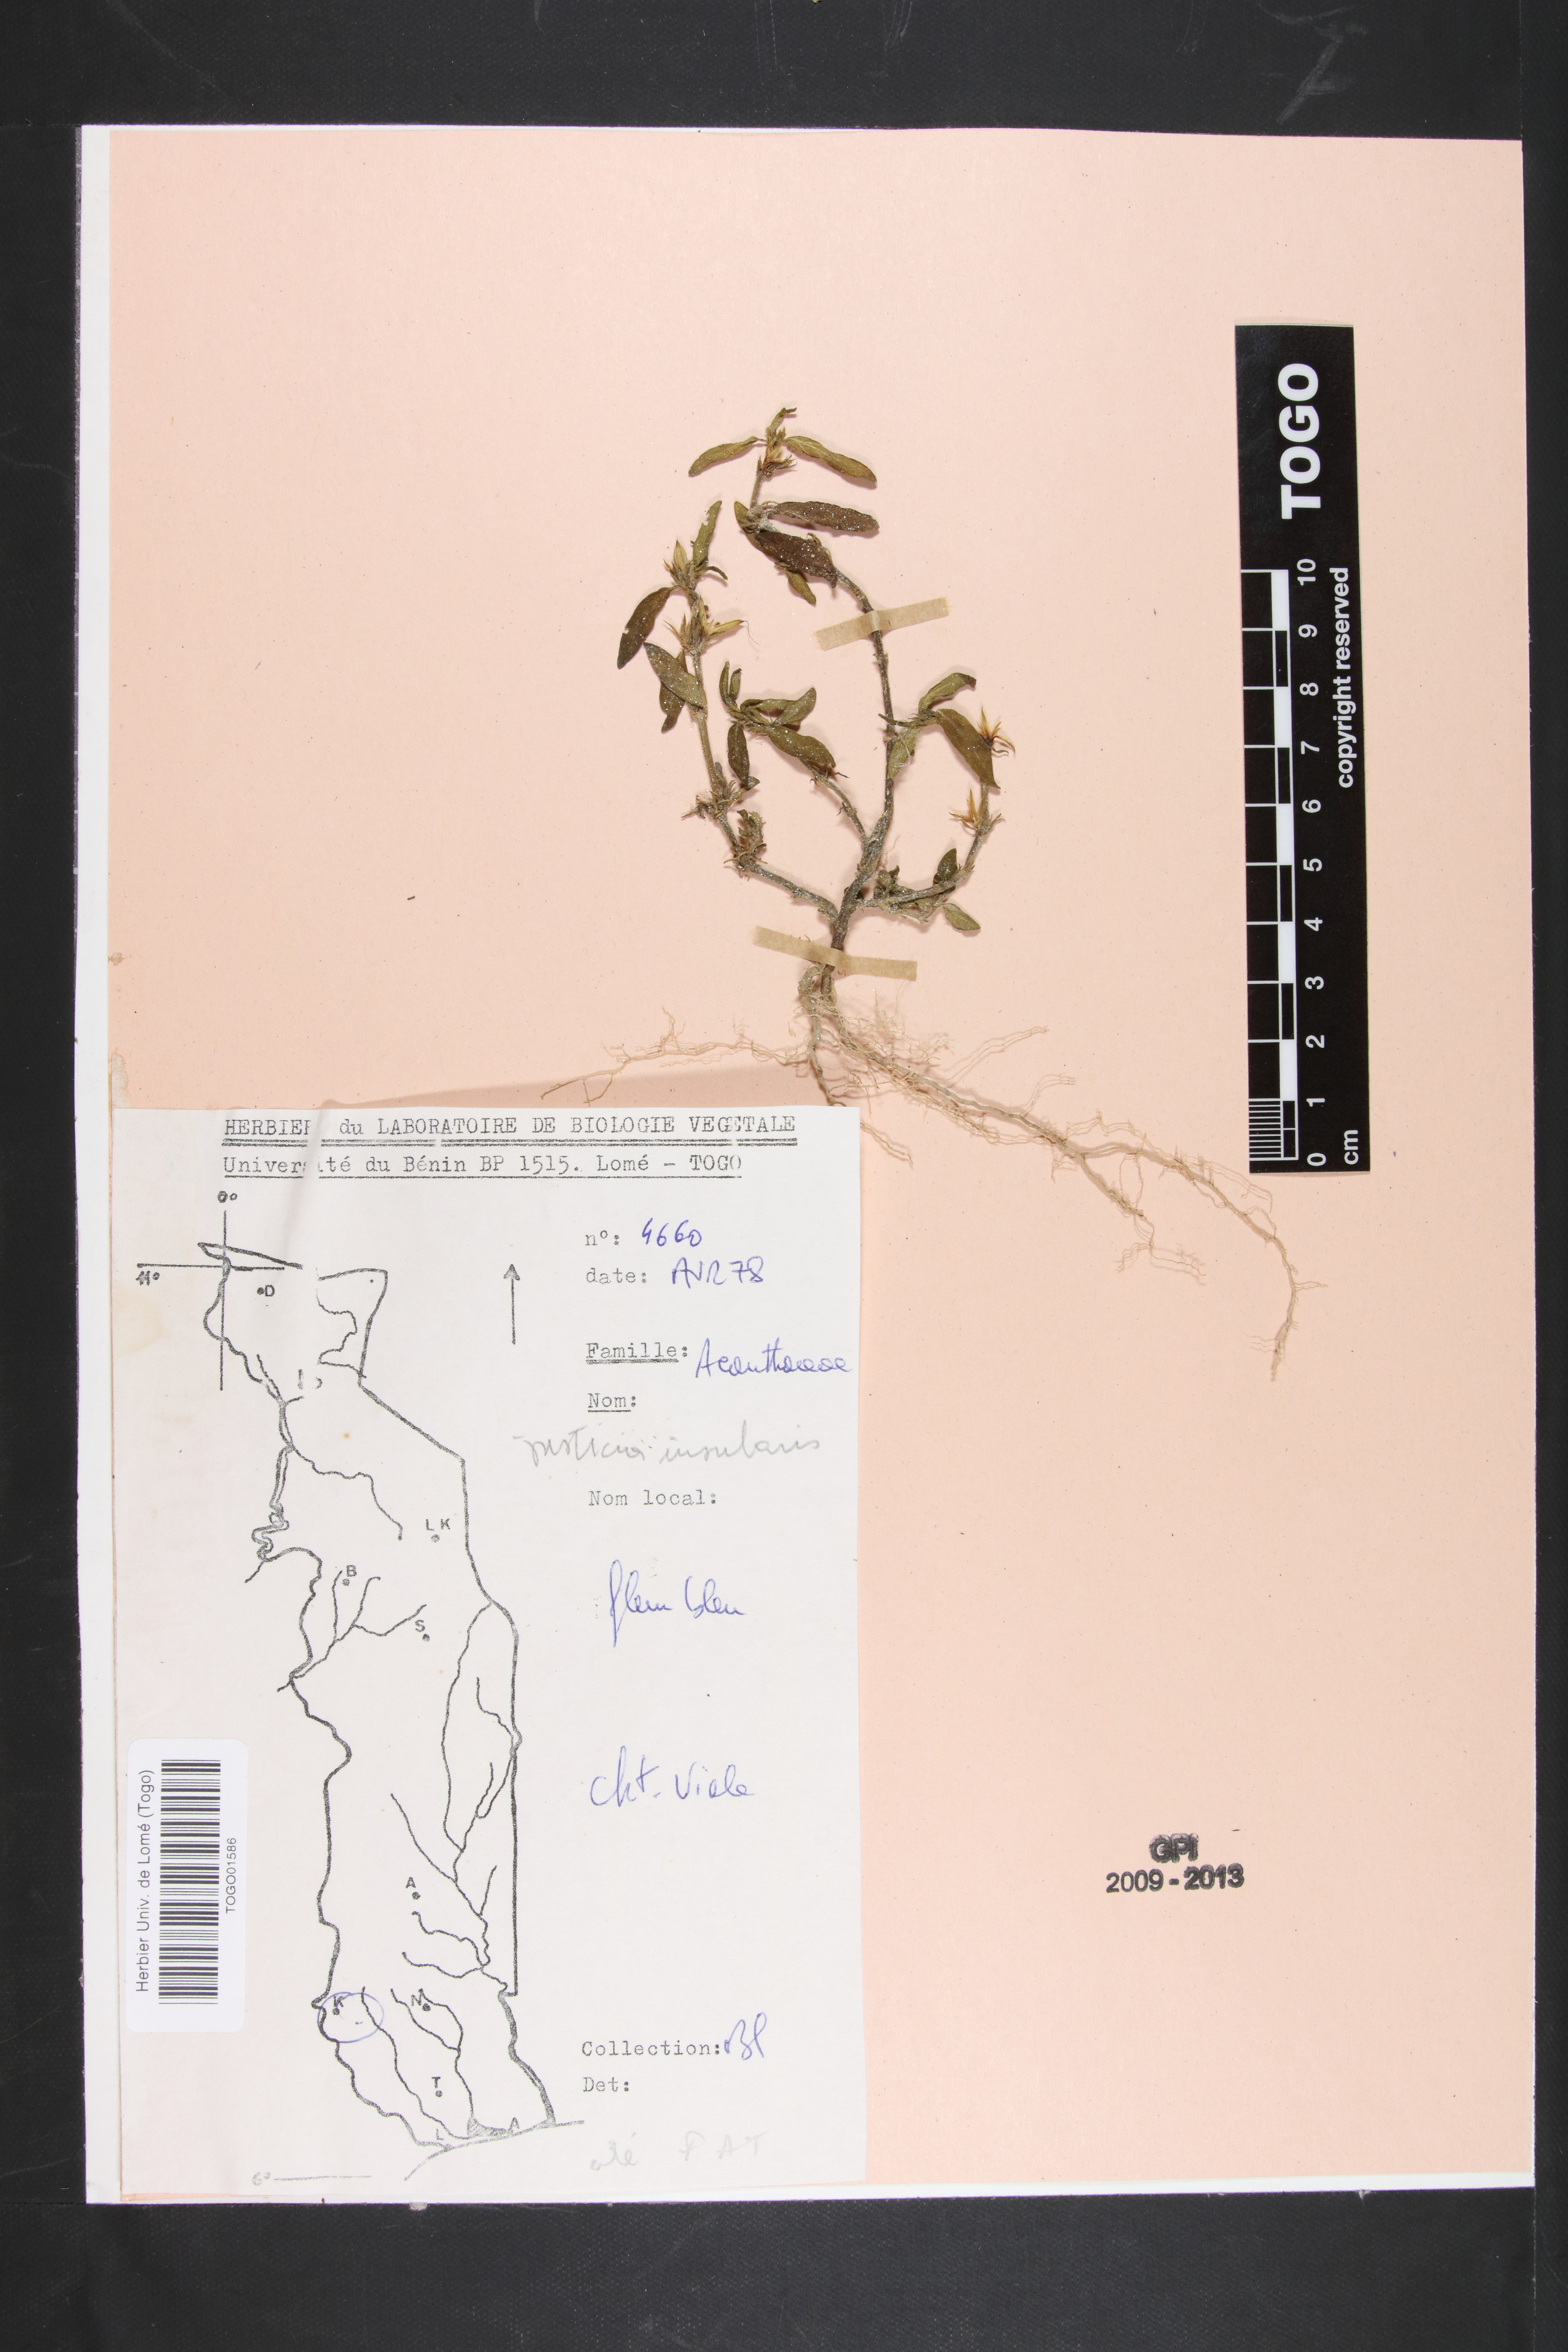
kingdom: Plantae
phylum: Tracheophyta
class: Magnoliopsida
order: Lamiales
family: Acanthaceae
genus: Justicia
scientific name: Justicia insularis
